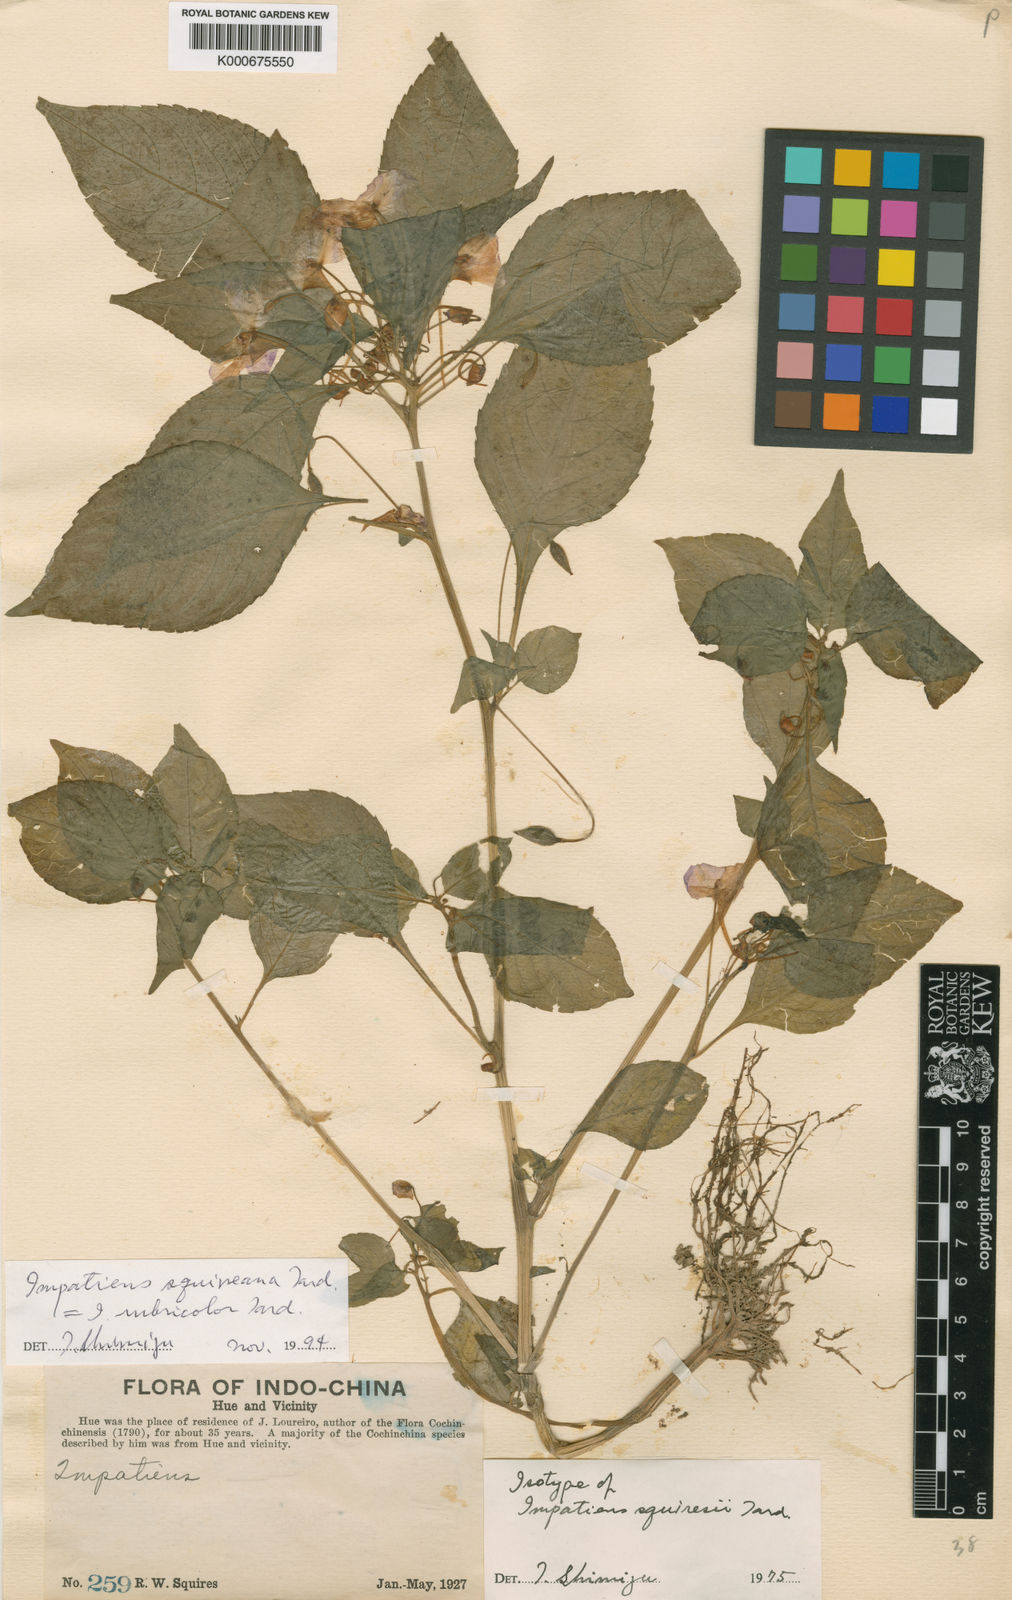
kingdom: Plantae
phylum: Tracheophyta
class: Magnoliopsida
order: Ericales
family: Balsaminaceae
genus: Impatiens
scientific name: Impatiens squiresii
